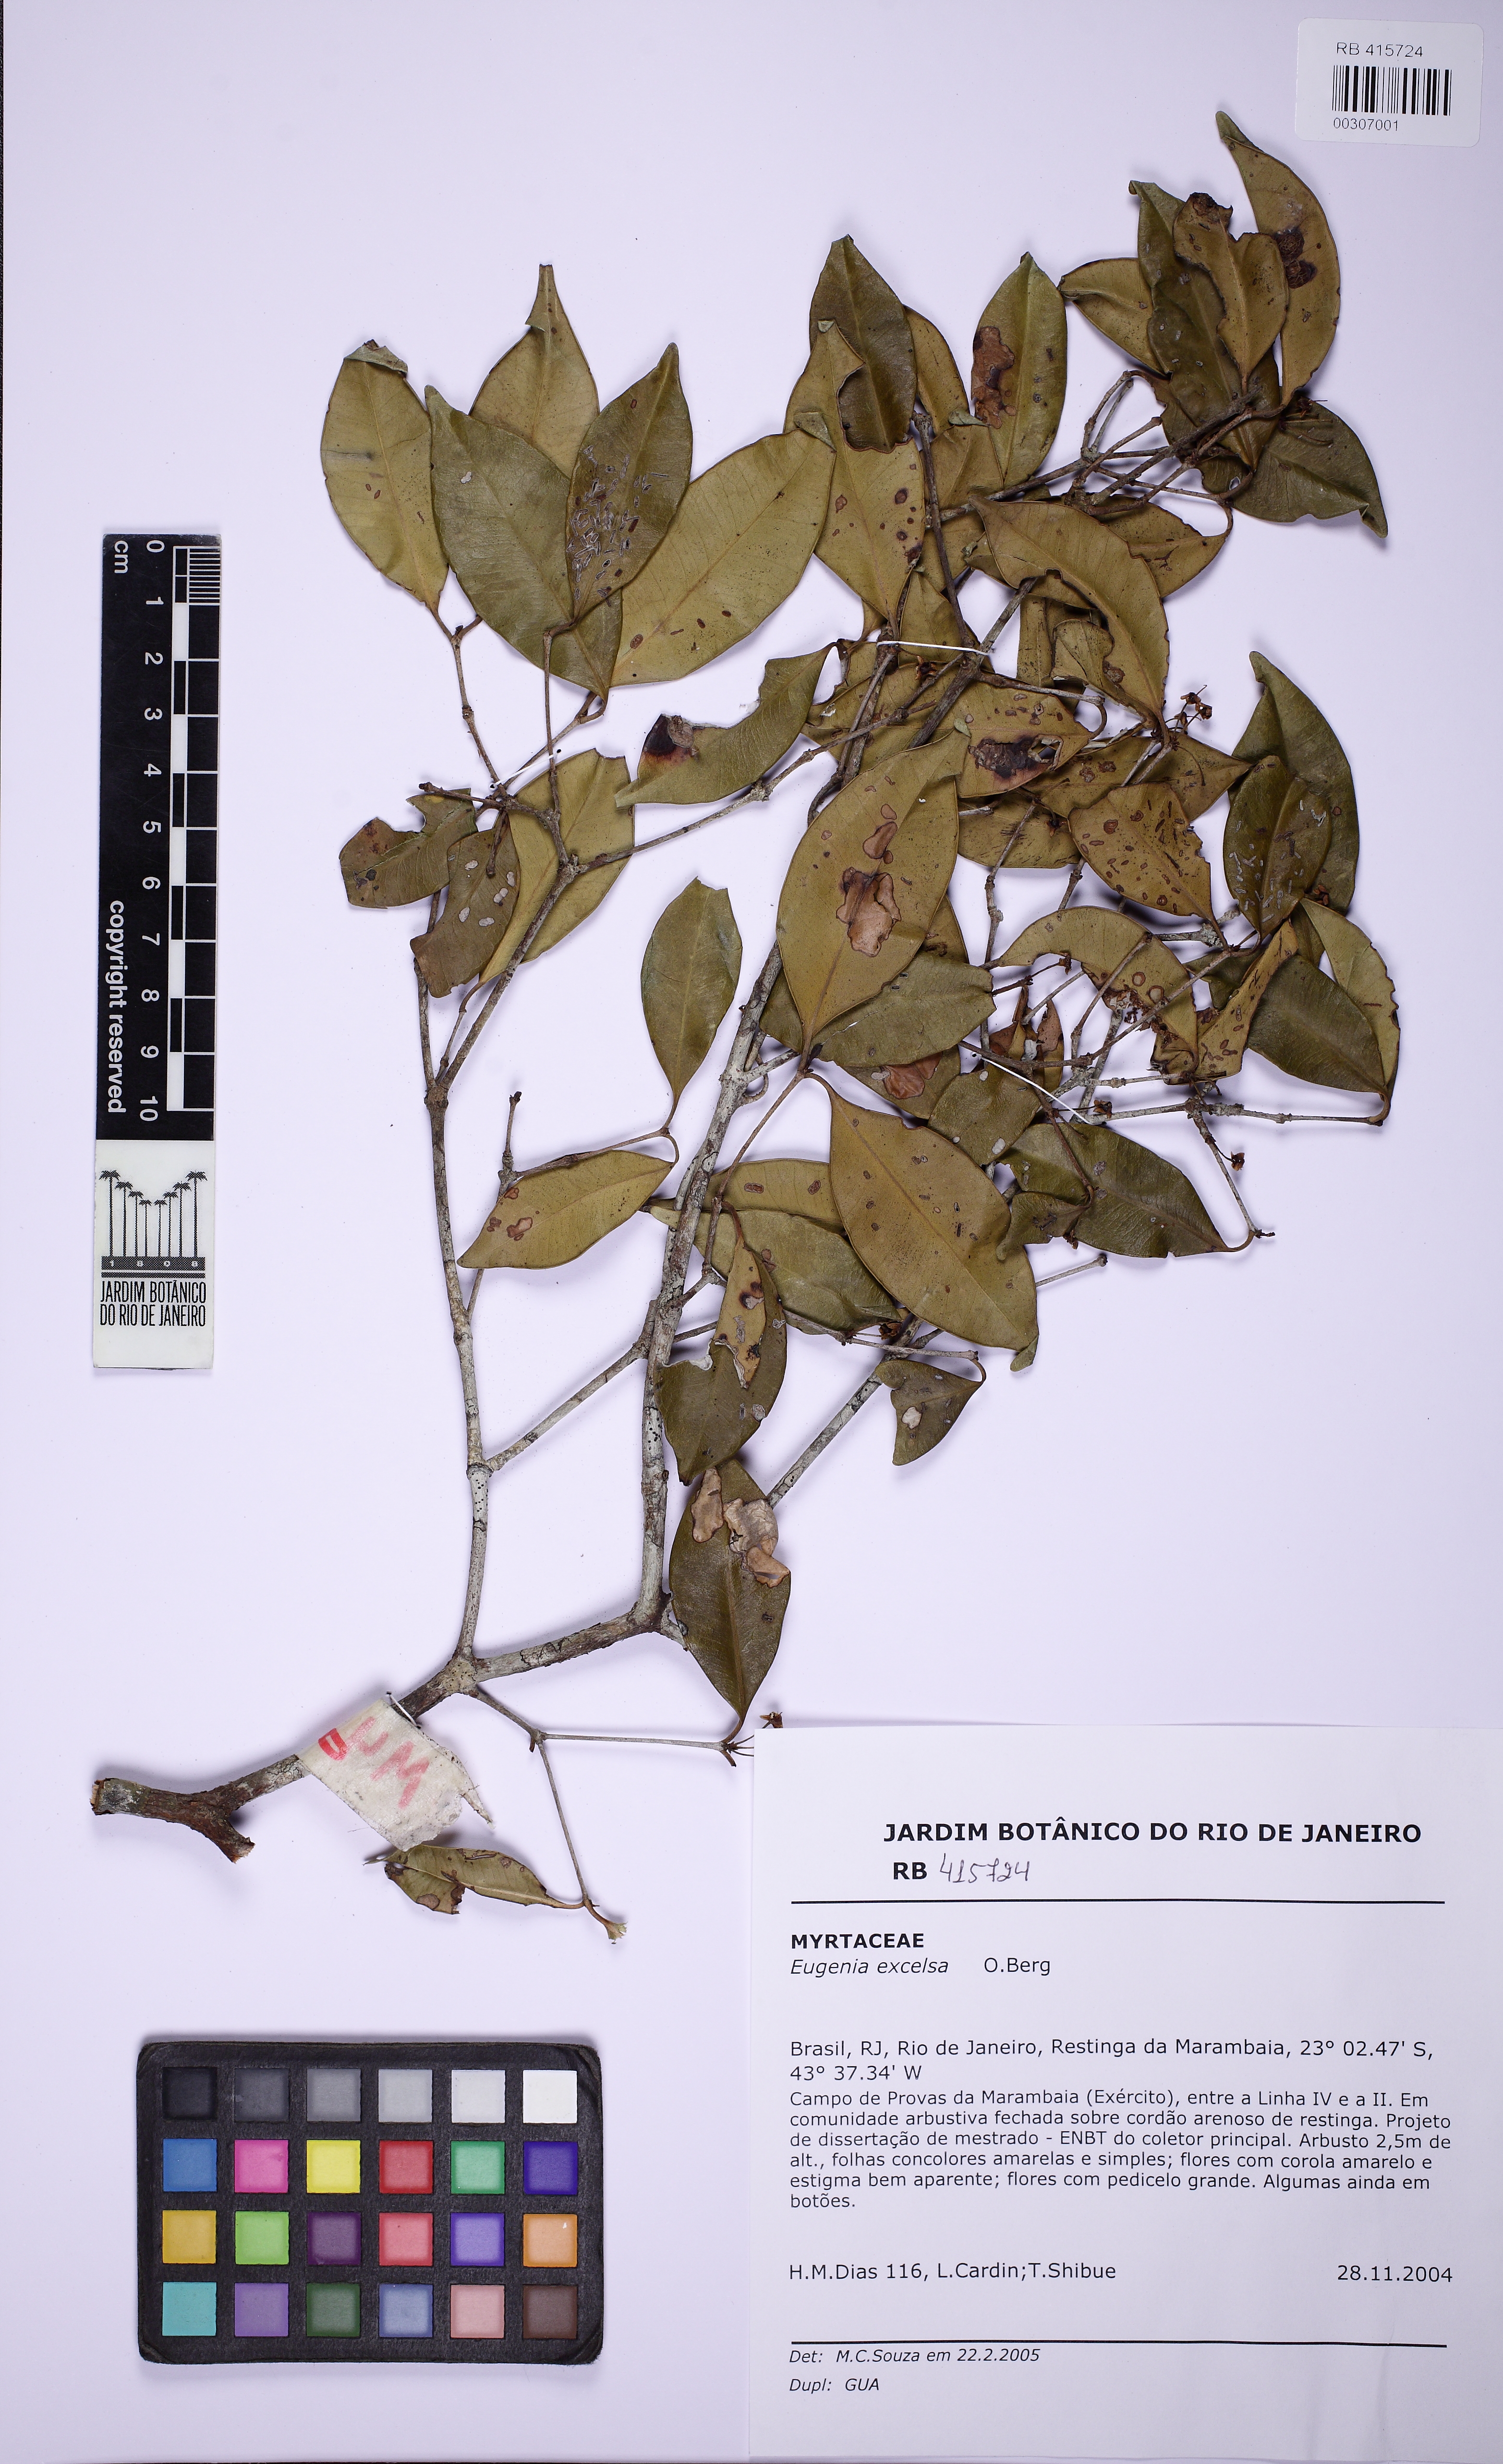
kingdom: Plantae
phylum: Tracheophyta
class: Magnoliopsida
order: Myrtales
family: Myrtaceae
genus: Eugenia
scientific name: Eugenia excelsa
